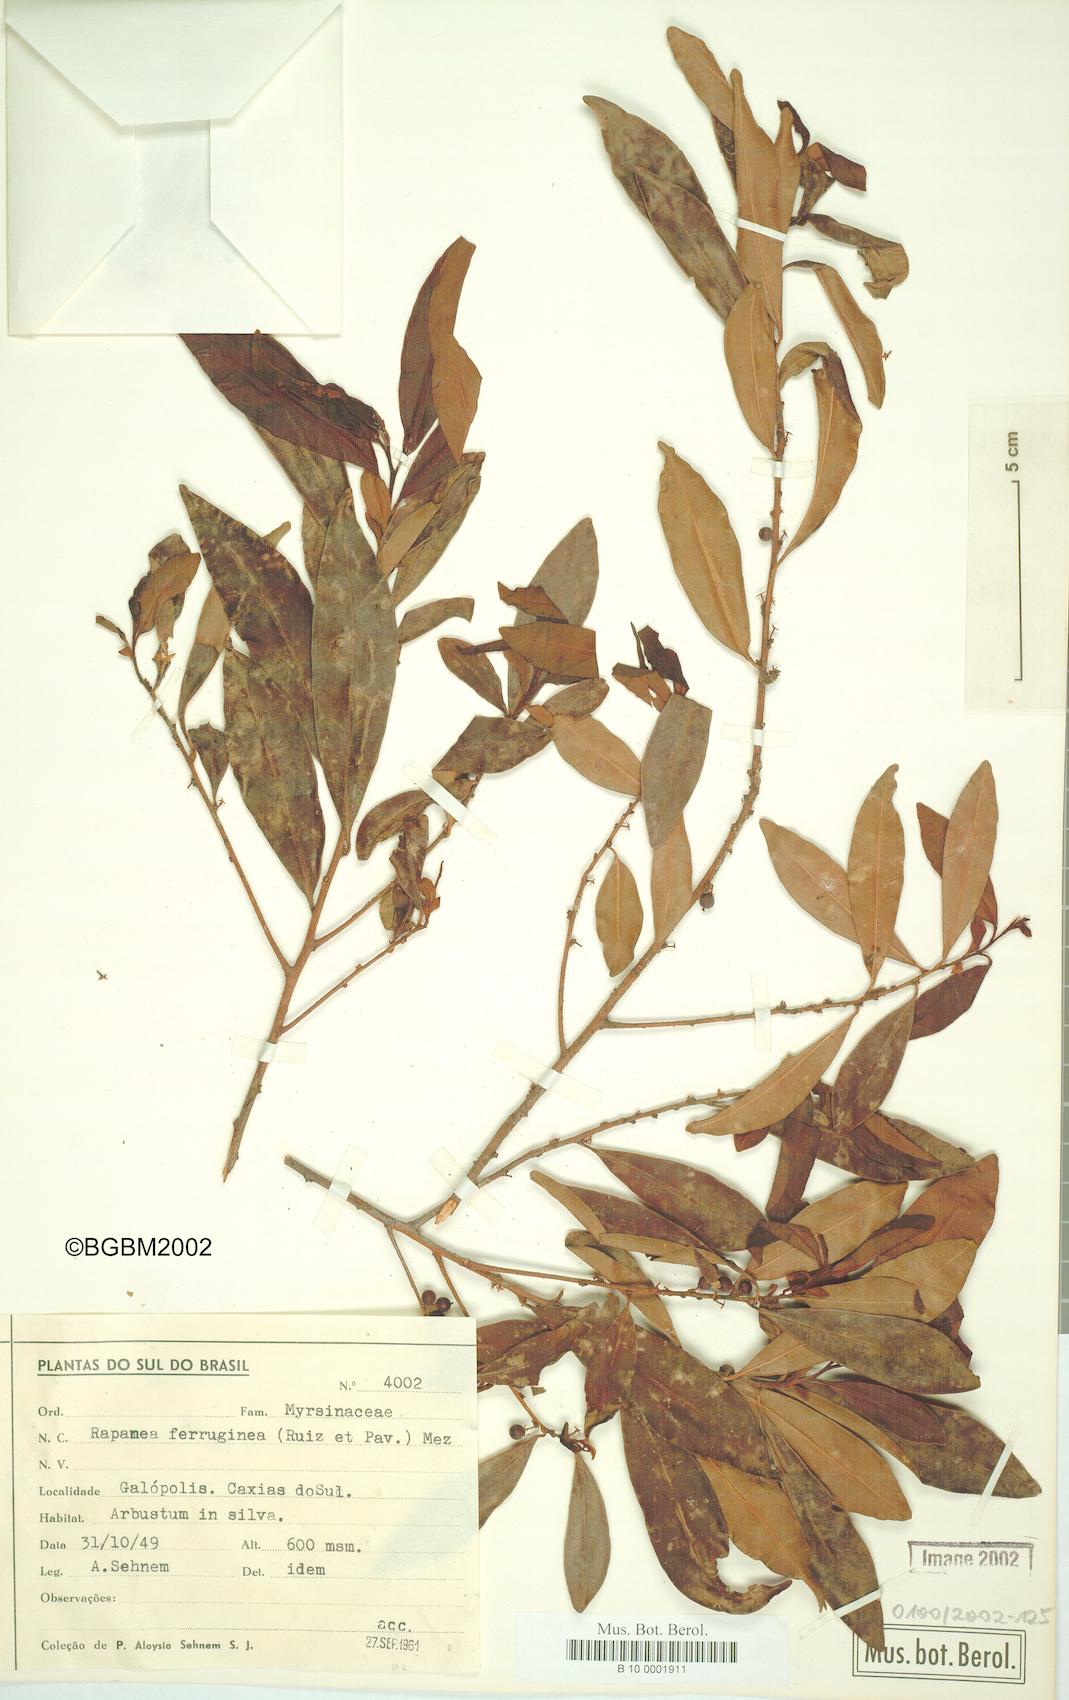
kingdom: Plantae
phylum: Tracheophyta
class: Magnoliopsida
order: Ericales
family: Primulaceae
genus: Myrsine
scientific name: Myrsine coriacea
